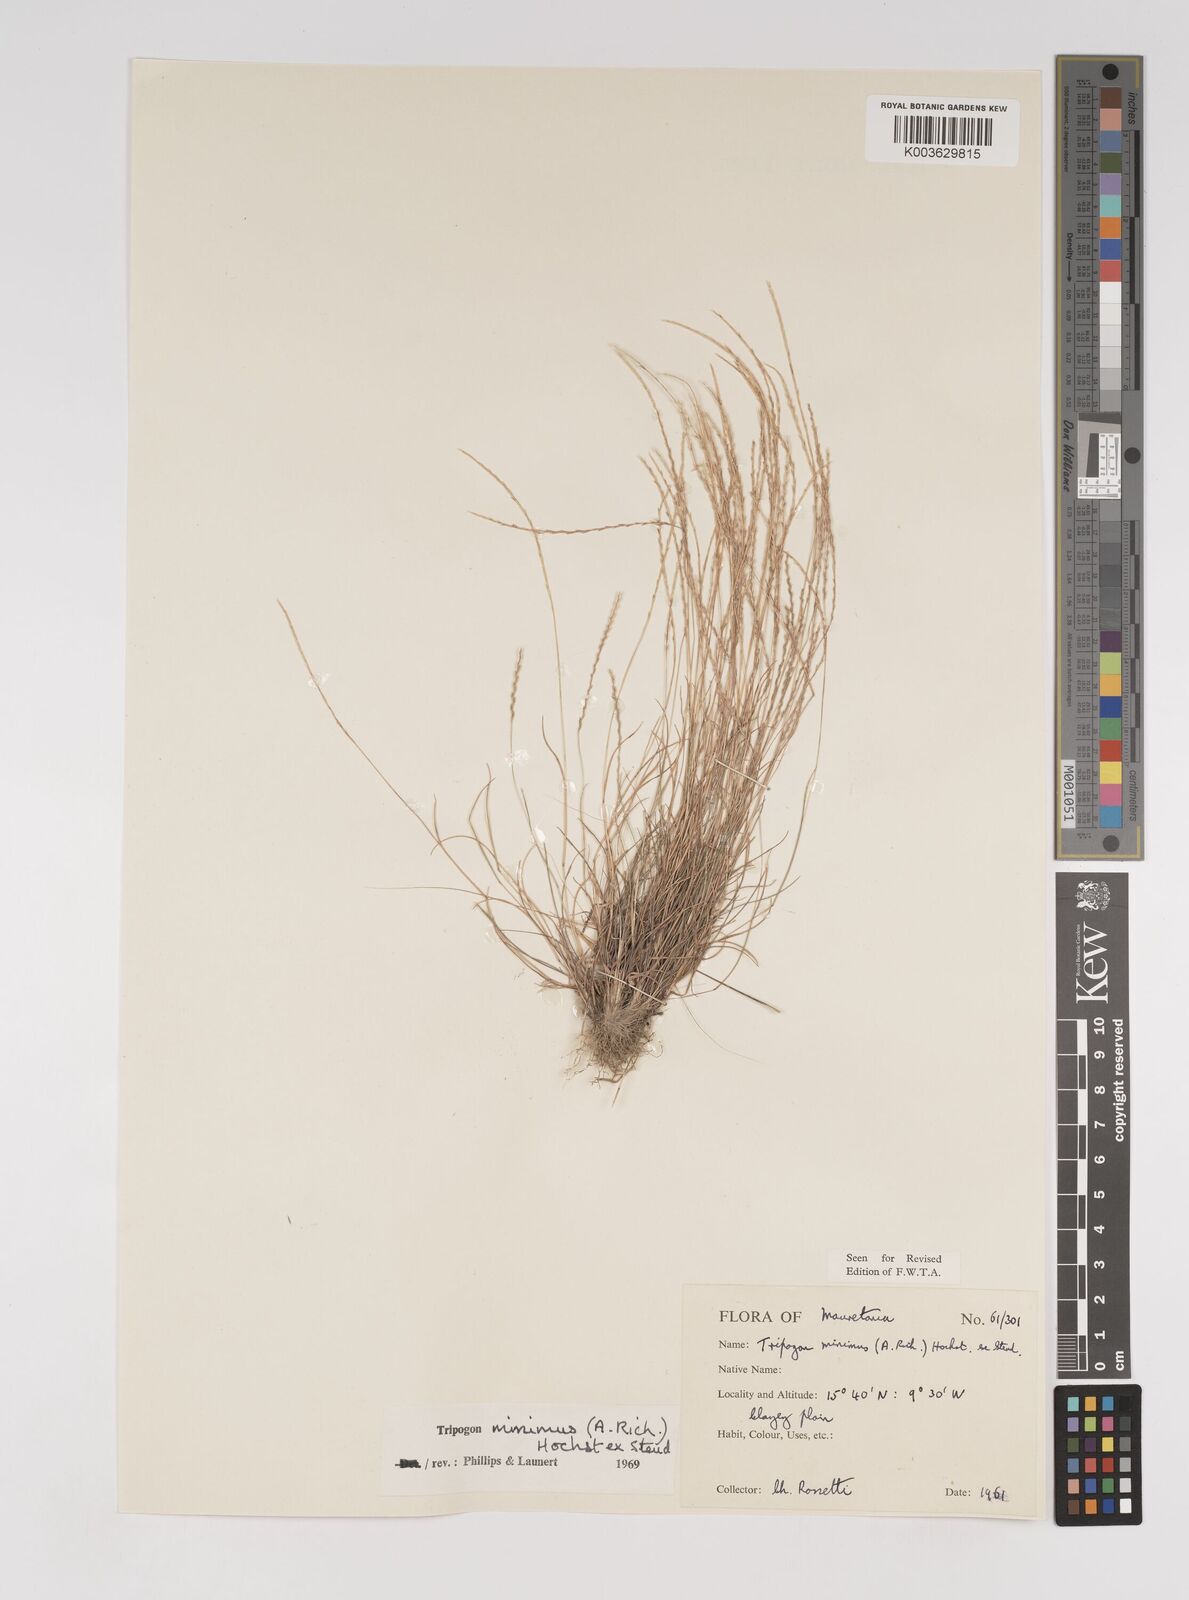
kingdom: Plantae
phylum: Tracheophyta
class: Liliopsida
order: Poales
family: Poaceae
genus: Tripogonella
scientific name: Tripogonella minima
